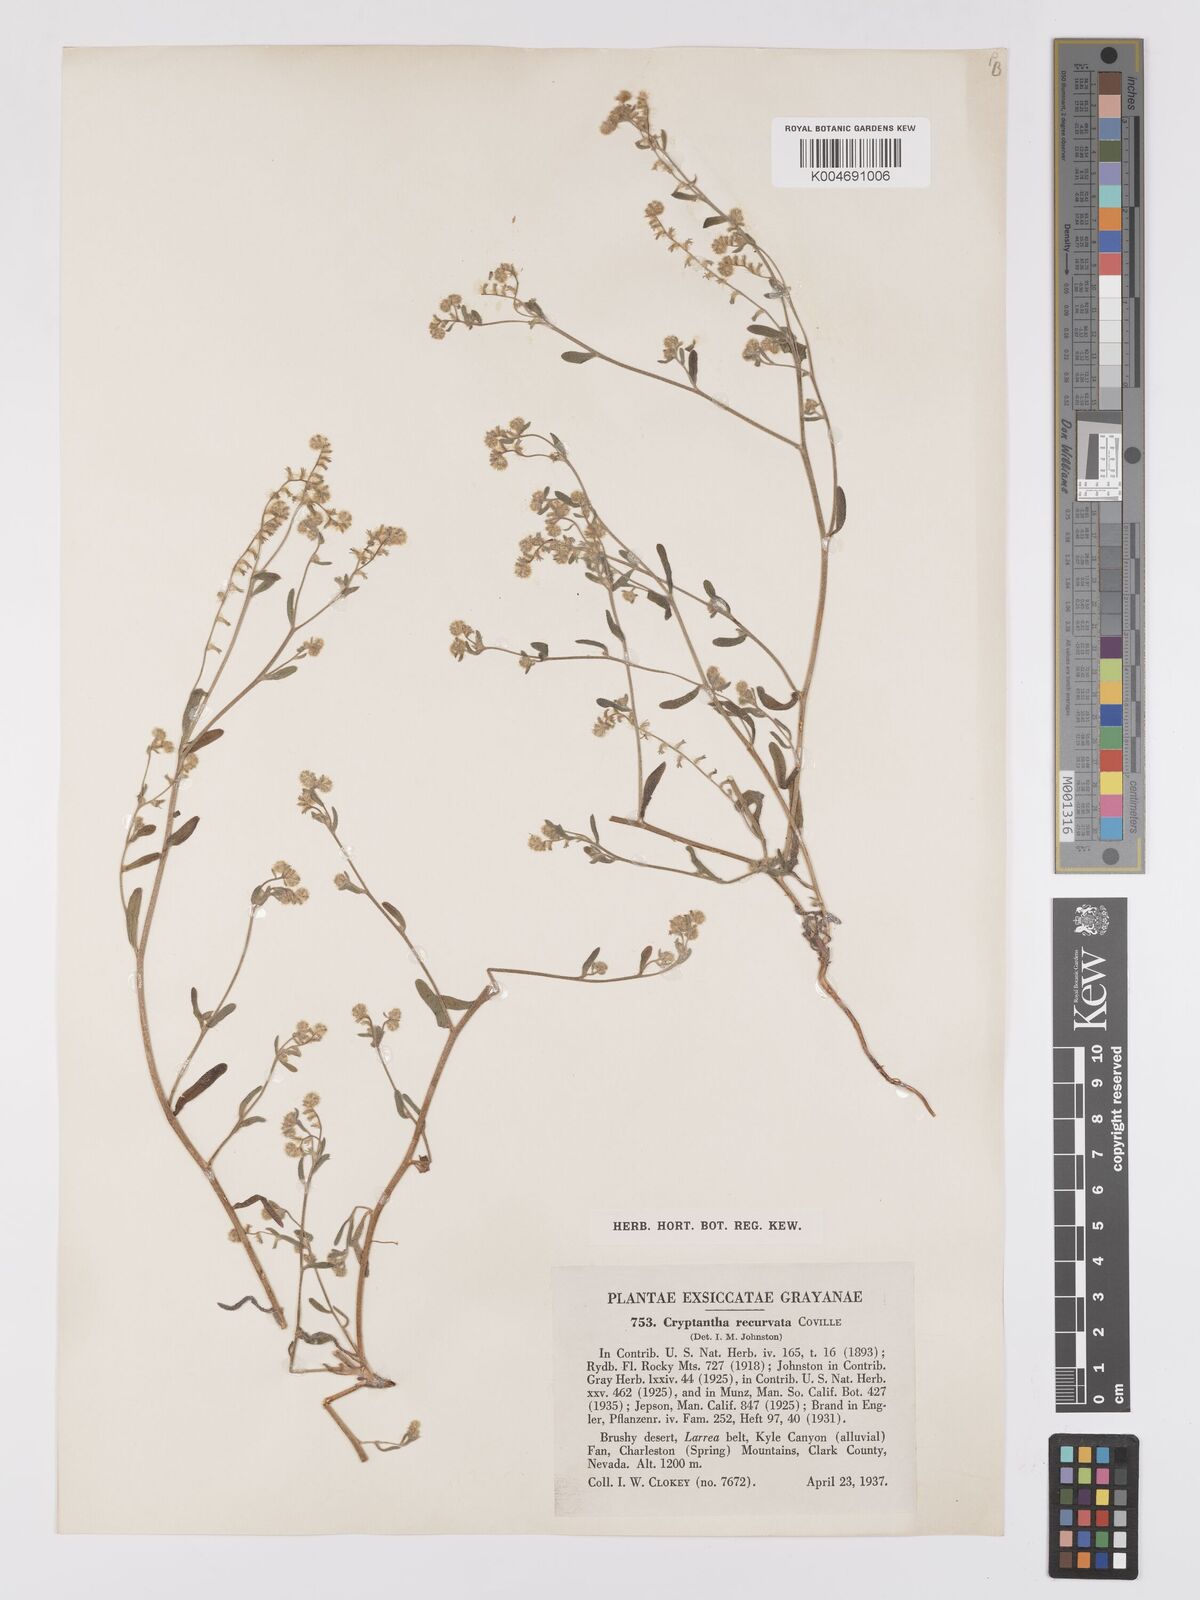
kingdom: Plantae
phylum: Tracheophyta
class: Magnoliopsida
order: Boraginales
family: Boraginaceae
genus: Cryptantha
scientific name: Cryptantha recurvata
